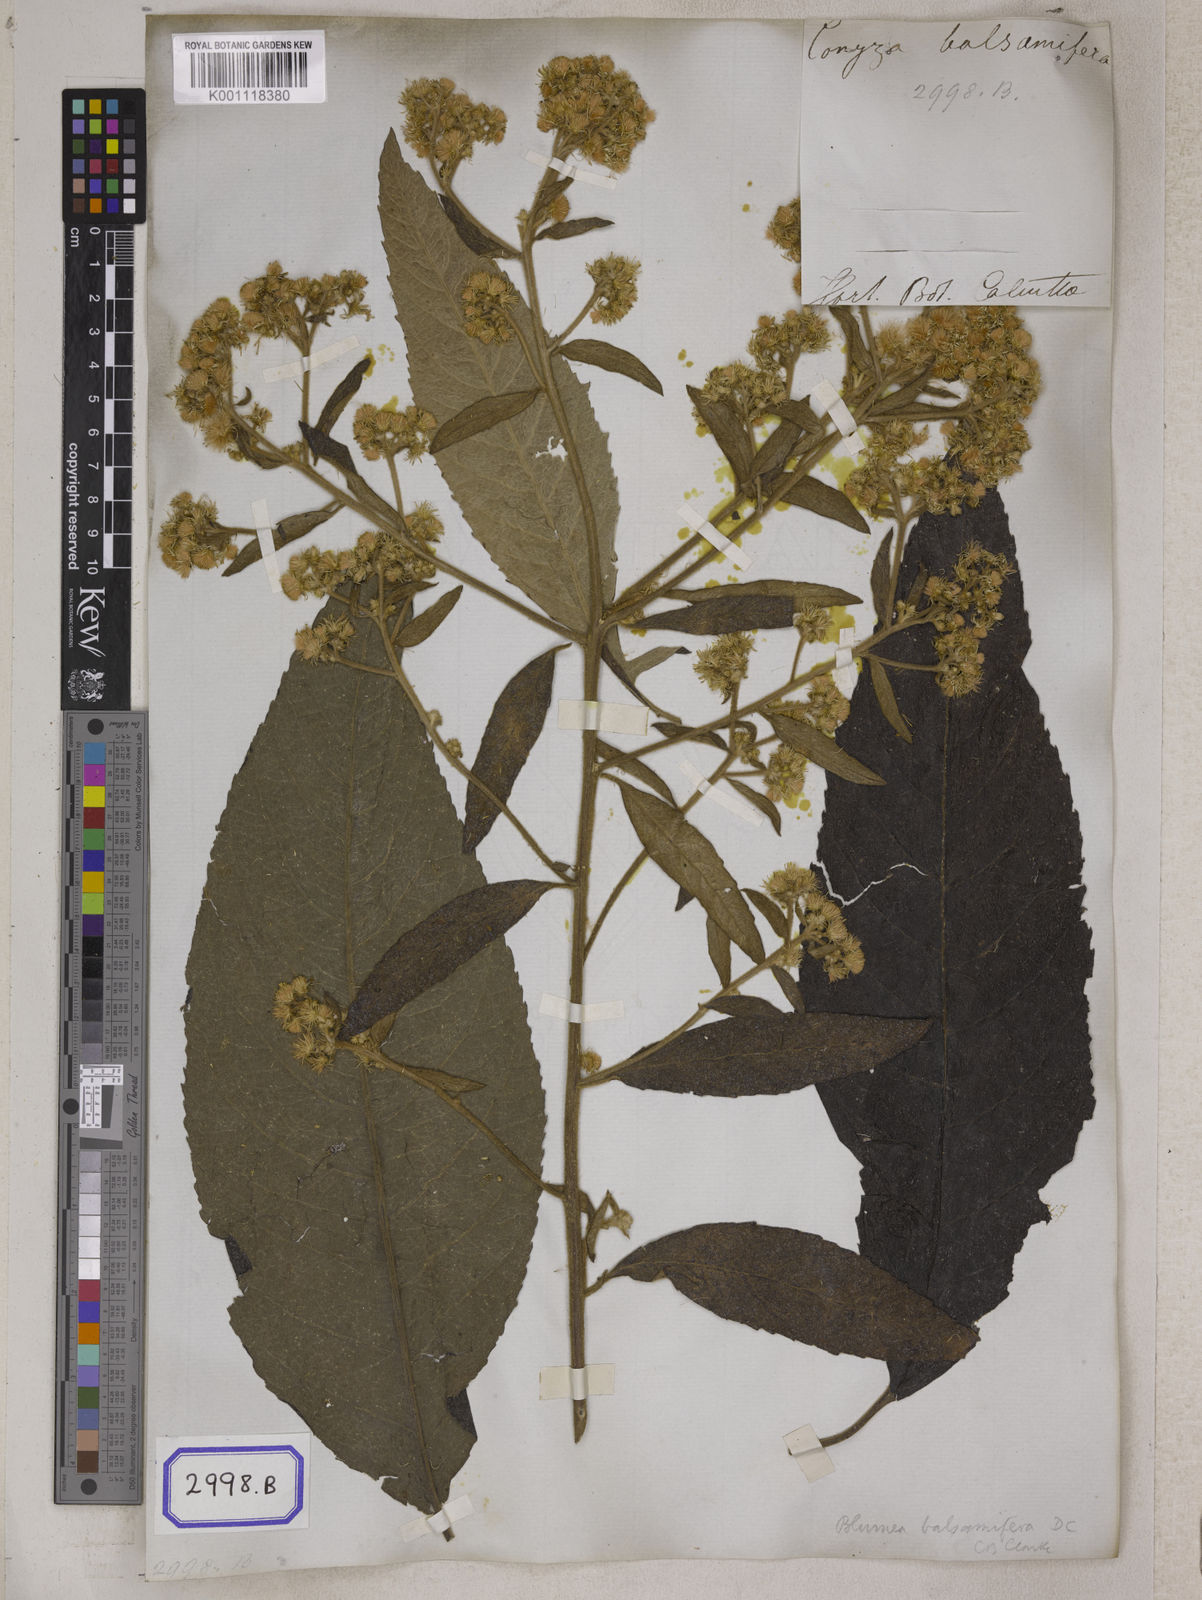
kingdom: Plantae
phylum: Tracheophyta
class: Magnoliopsida
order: Asterales
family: Asteraceae
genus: Blumea
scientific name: Blumea balsamifera
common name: Ngai camphor
